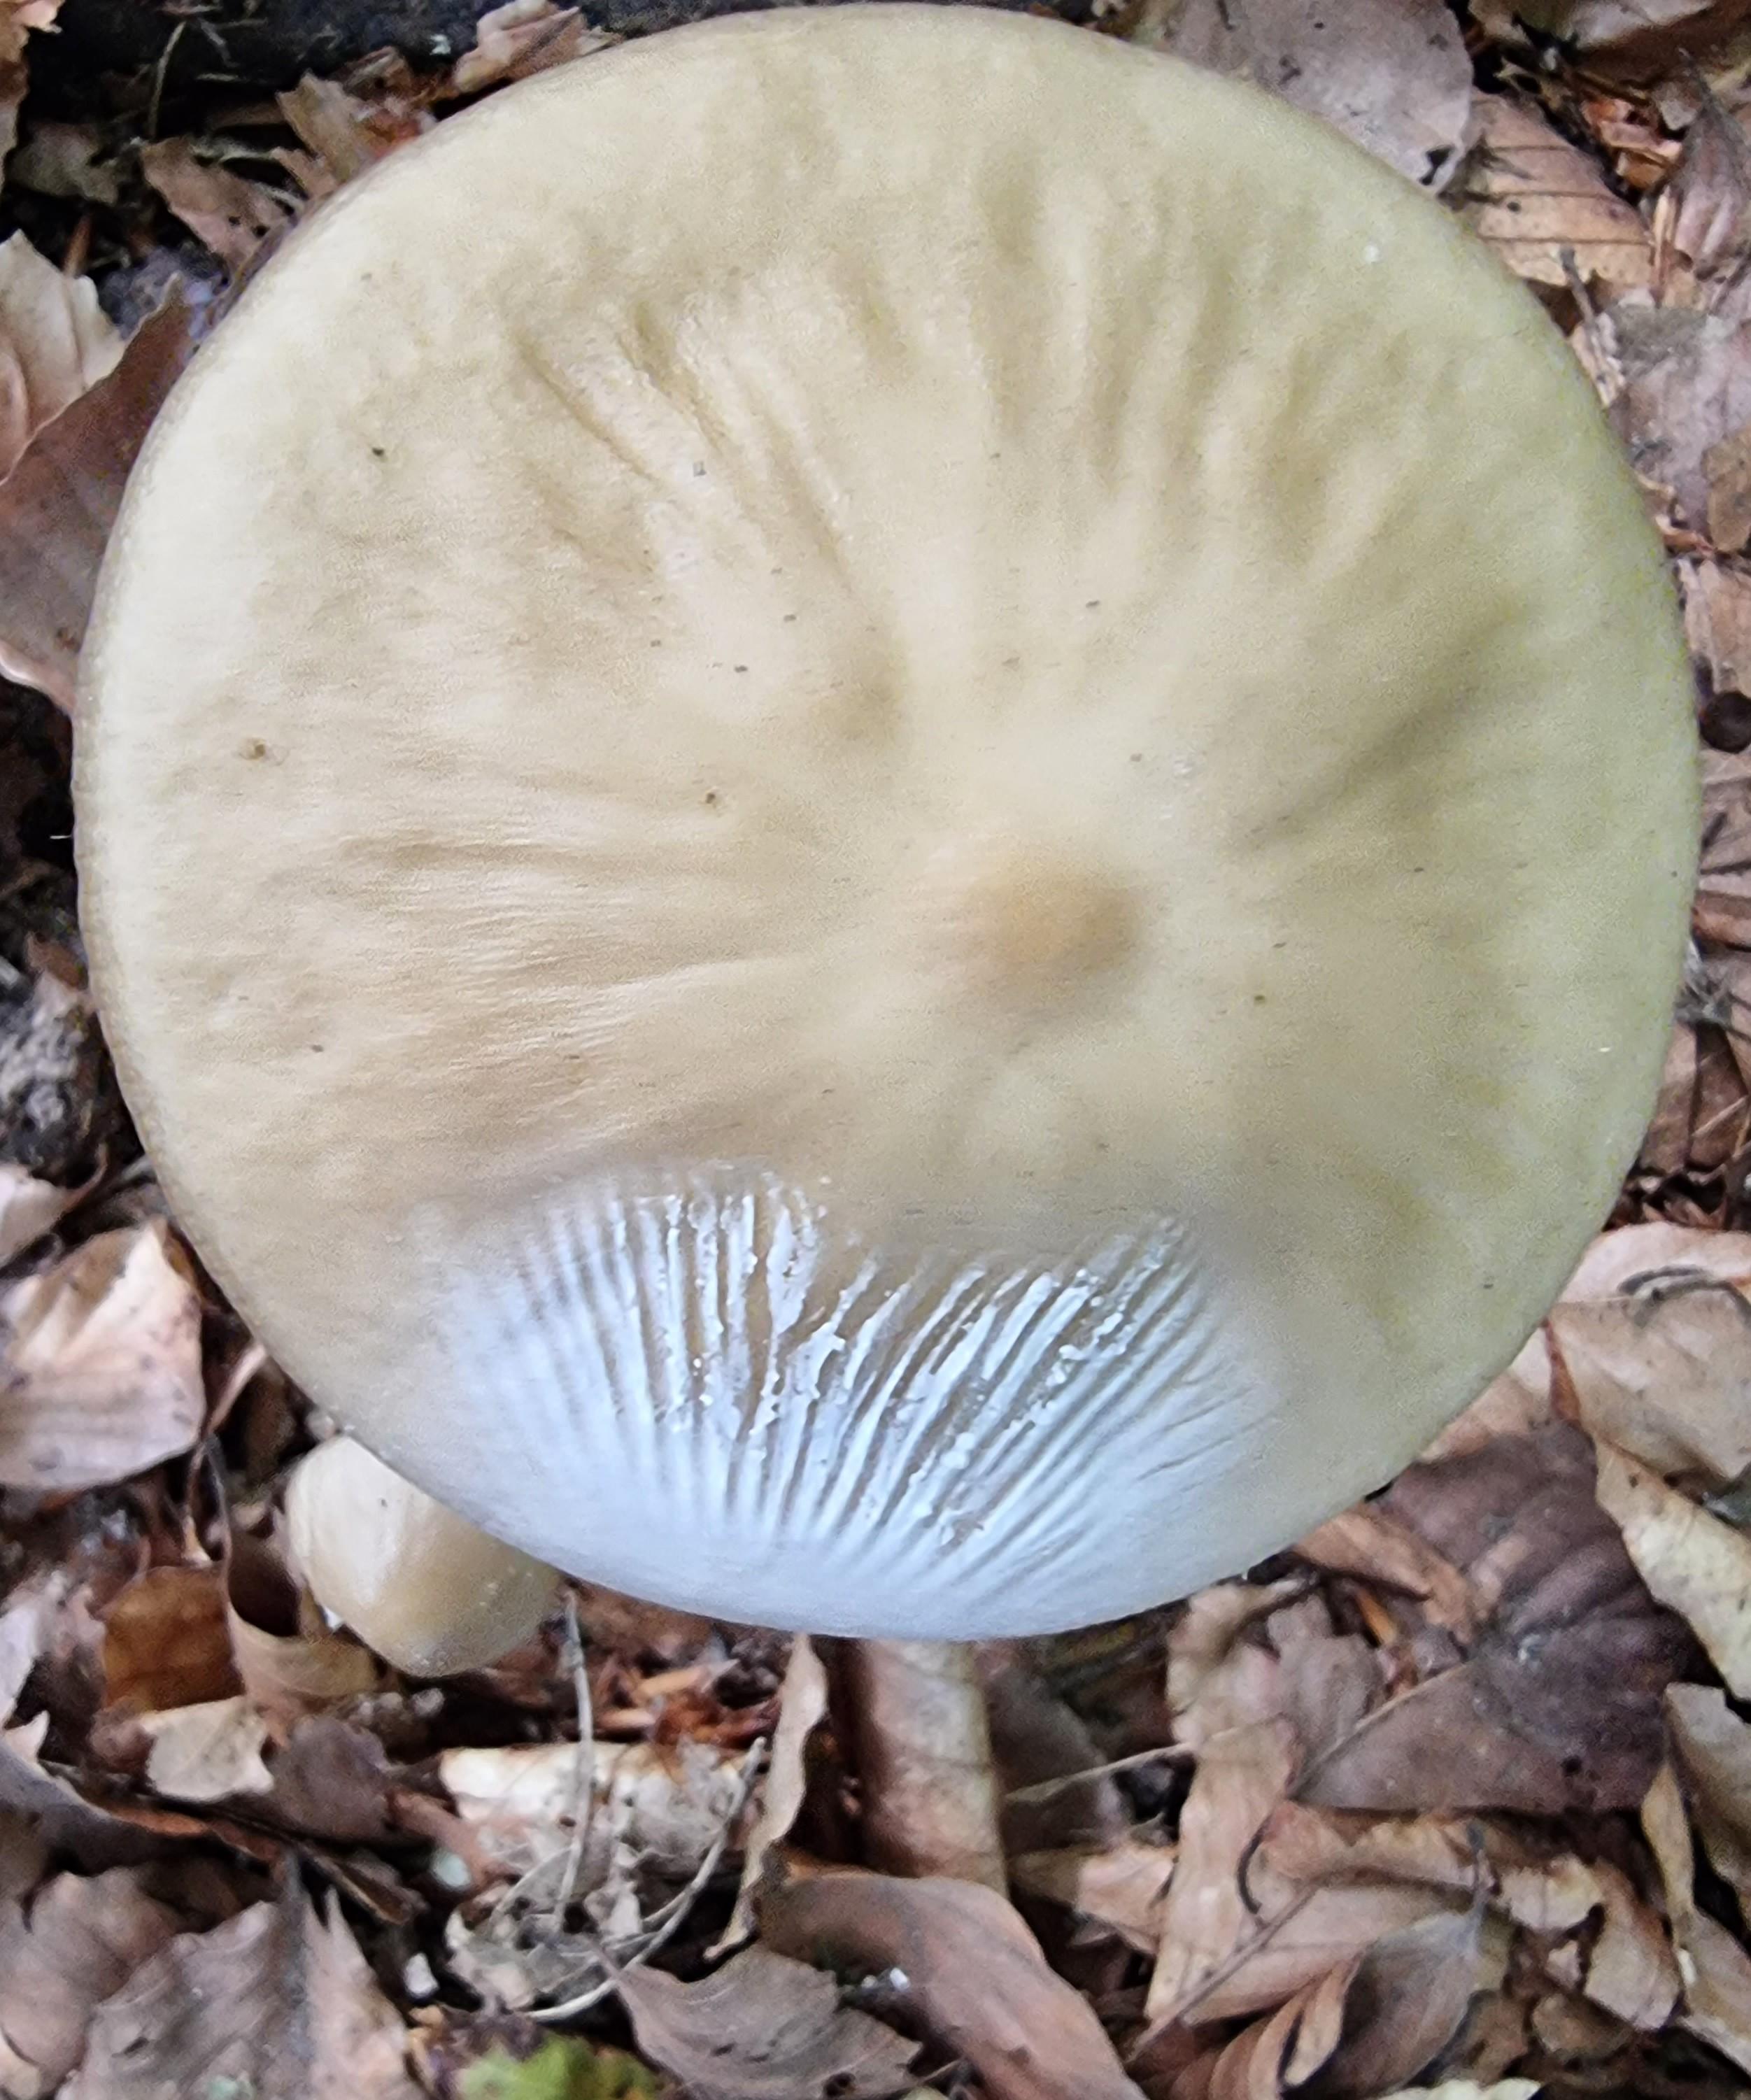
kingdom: Fungi
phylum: Basidiomycota
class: Agaricomycetes
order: Agaricales
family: Physalacriaceae
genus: Hymenopellis
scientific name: Hymenopellis radicata
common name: almindelig pælerodshat
